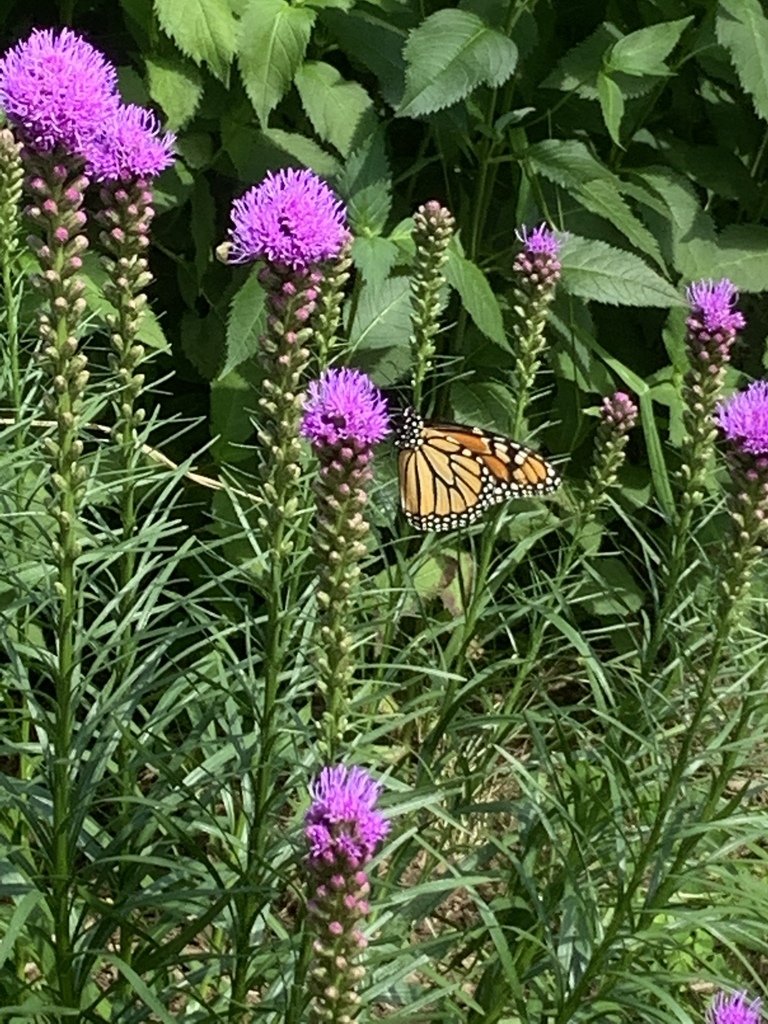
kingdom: Animalia
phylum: Arthropoda
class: Insecta
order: Lepidoptera
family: Nymphalidae
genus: Danaus
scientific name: Danaus plexippus
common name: Monarch
